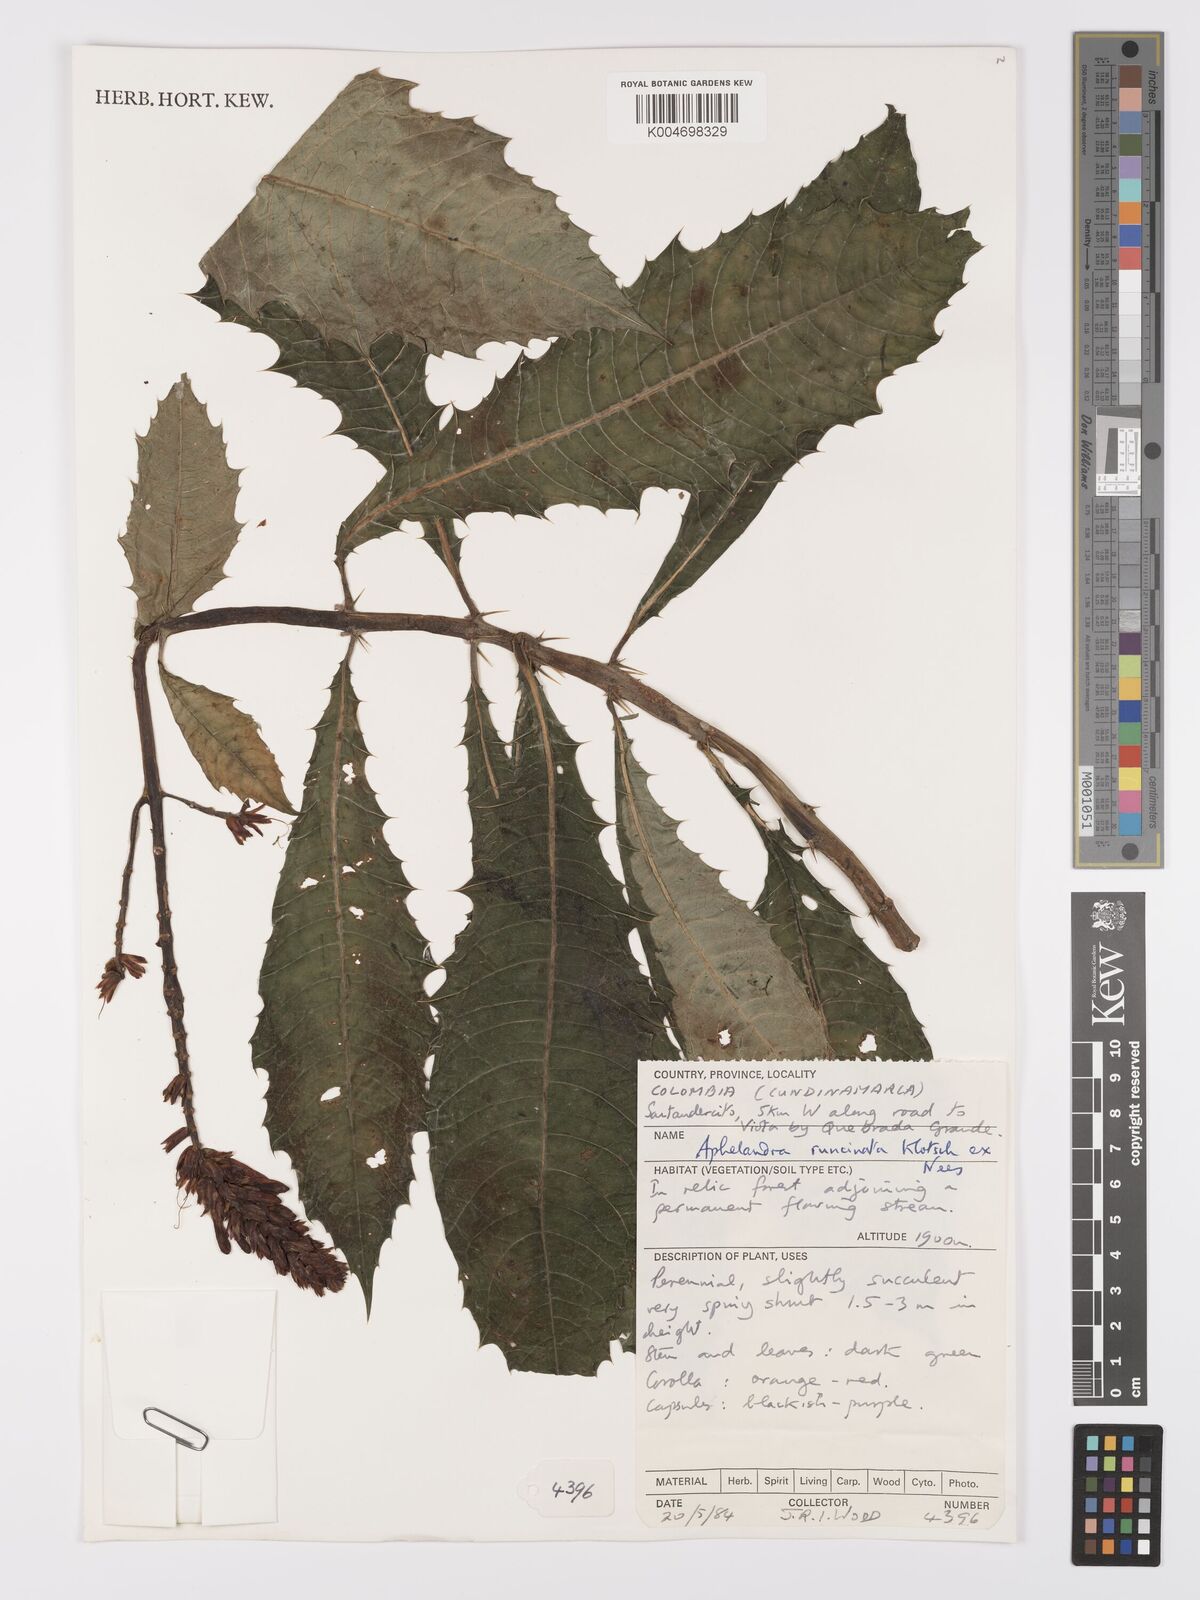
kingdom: Plantae
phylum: Tracheophyta
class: Magnoliopsida
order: Lamiales
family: Acanthaceae
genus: Aphelandra
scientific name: Aphelandra runcinata
